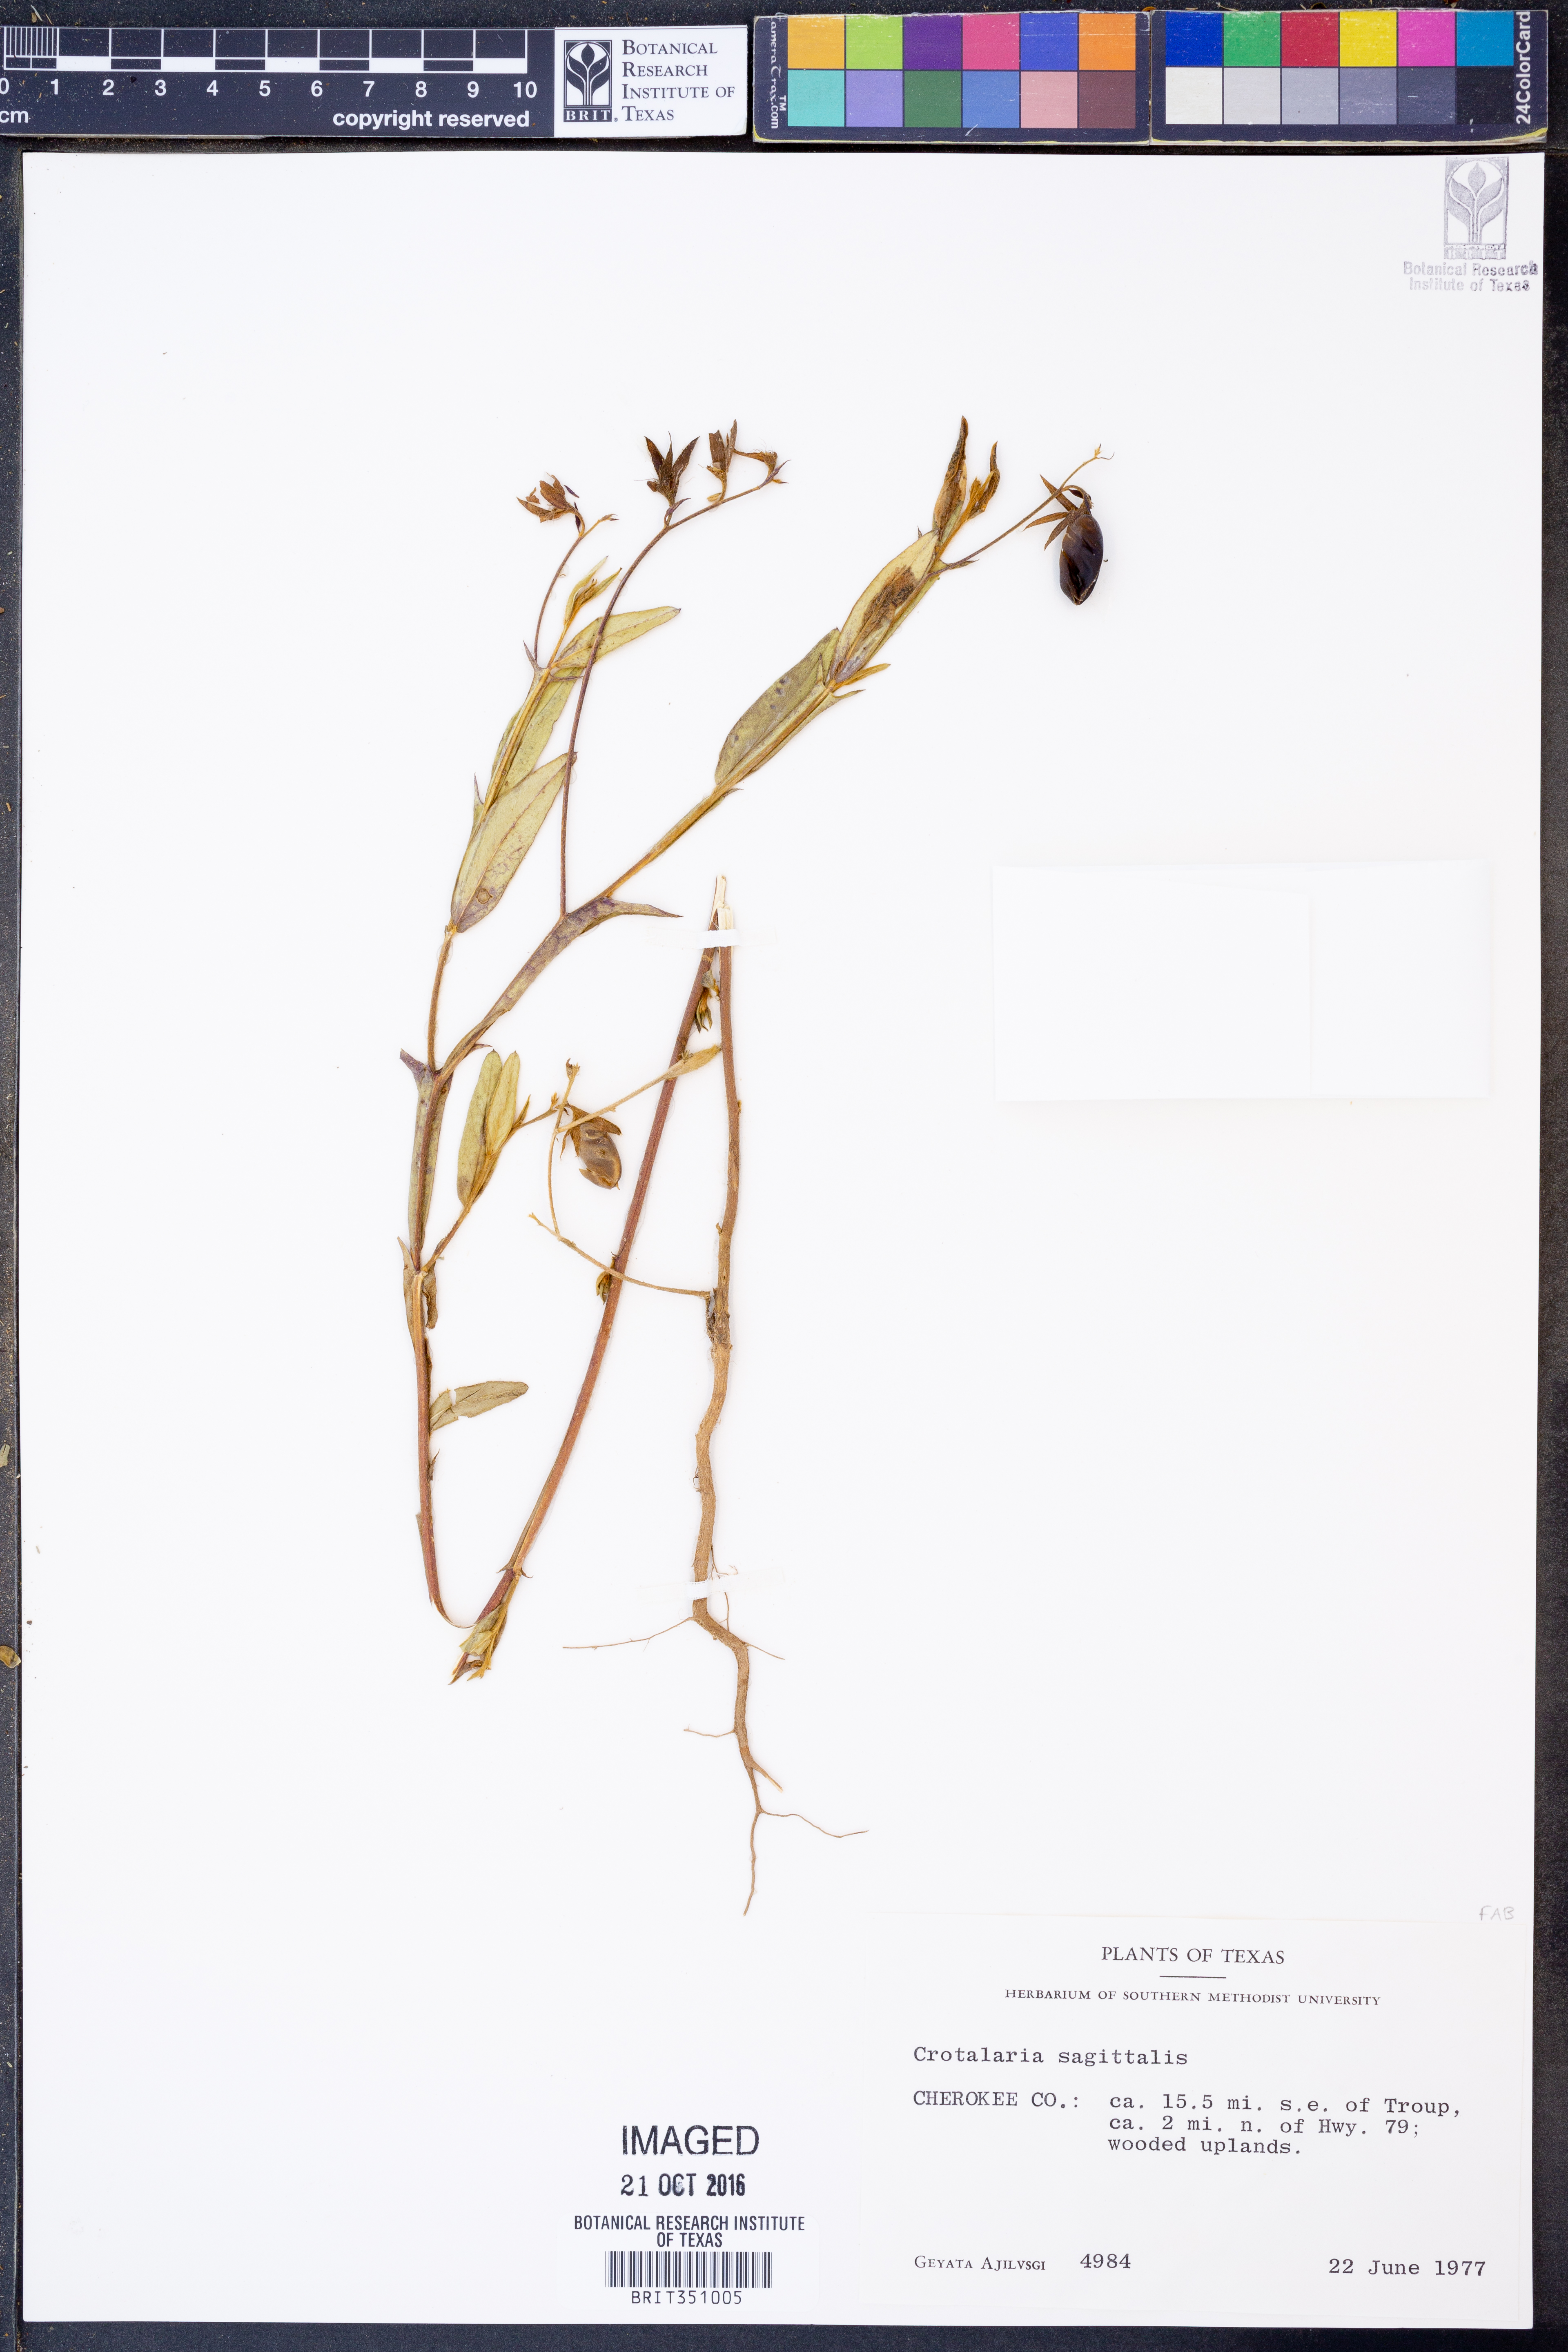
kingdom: Plantae
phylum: Tracheophyta
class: Magnoliopsida
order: Fabales
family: Fabaceae
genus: Crotalaria
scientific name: Crotalaria sagittalis
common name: Arrowhead rattlebox
